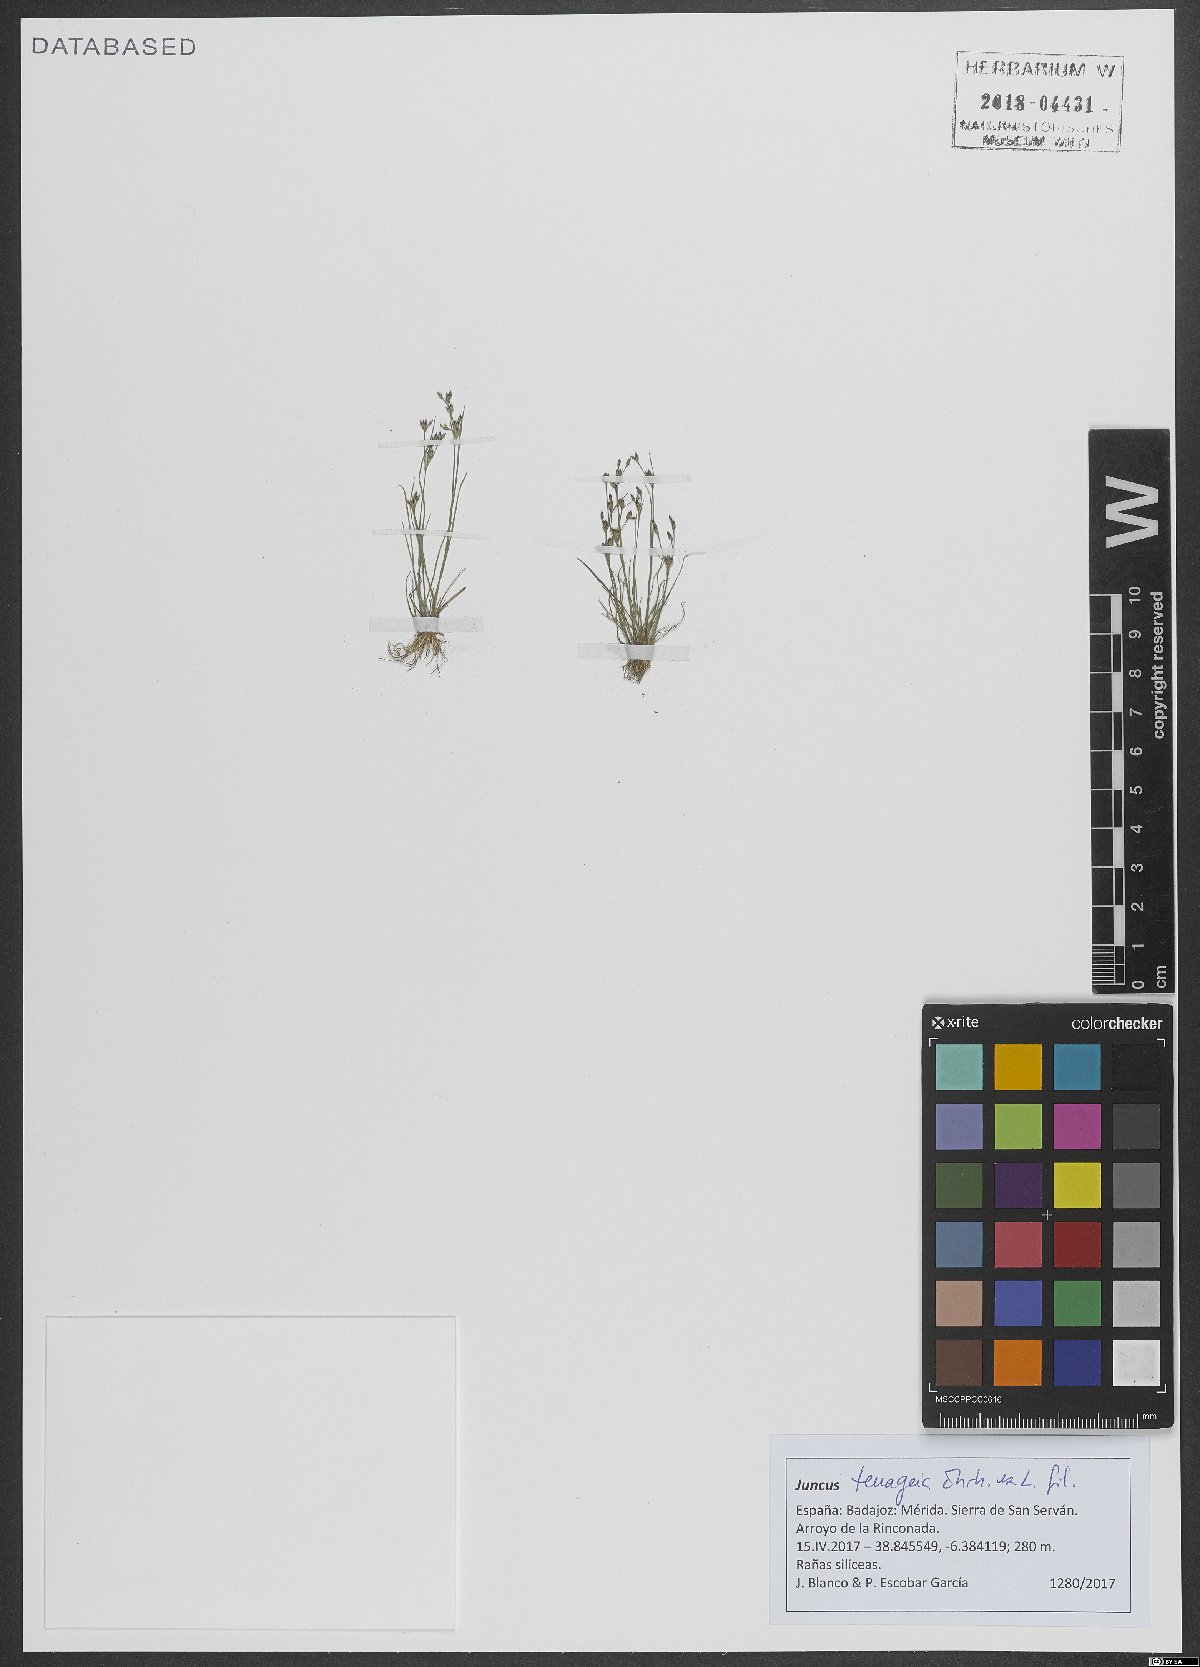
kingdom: Plantae
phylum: Tracheophyta
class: Liliopsida
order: Poales
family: Juncaceae
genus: Juncus
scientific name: Juncus tenageia
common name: Sand rush
